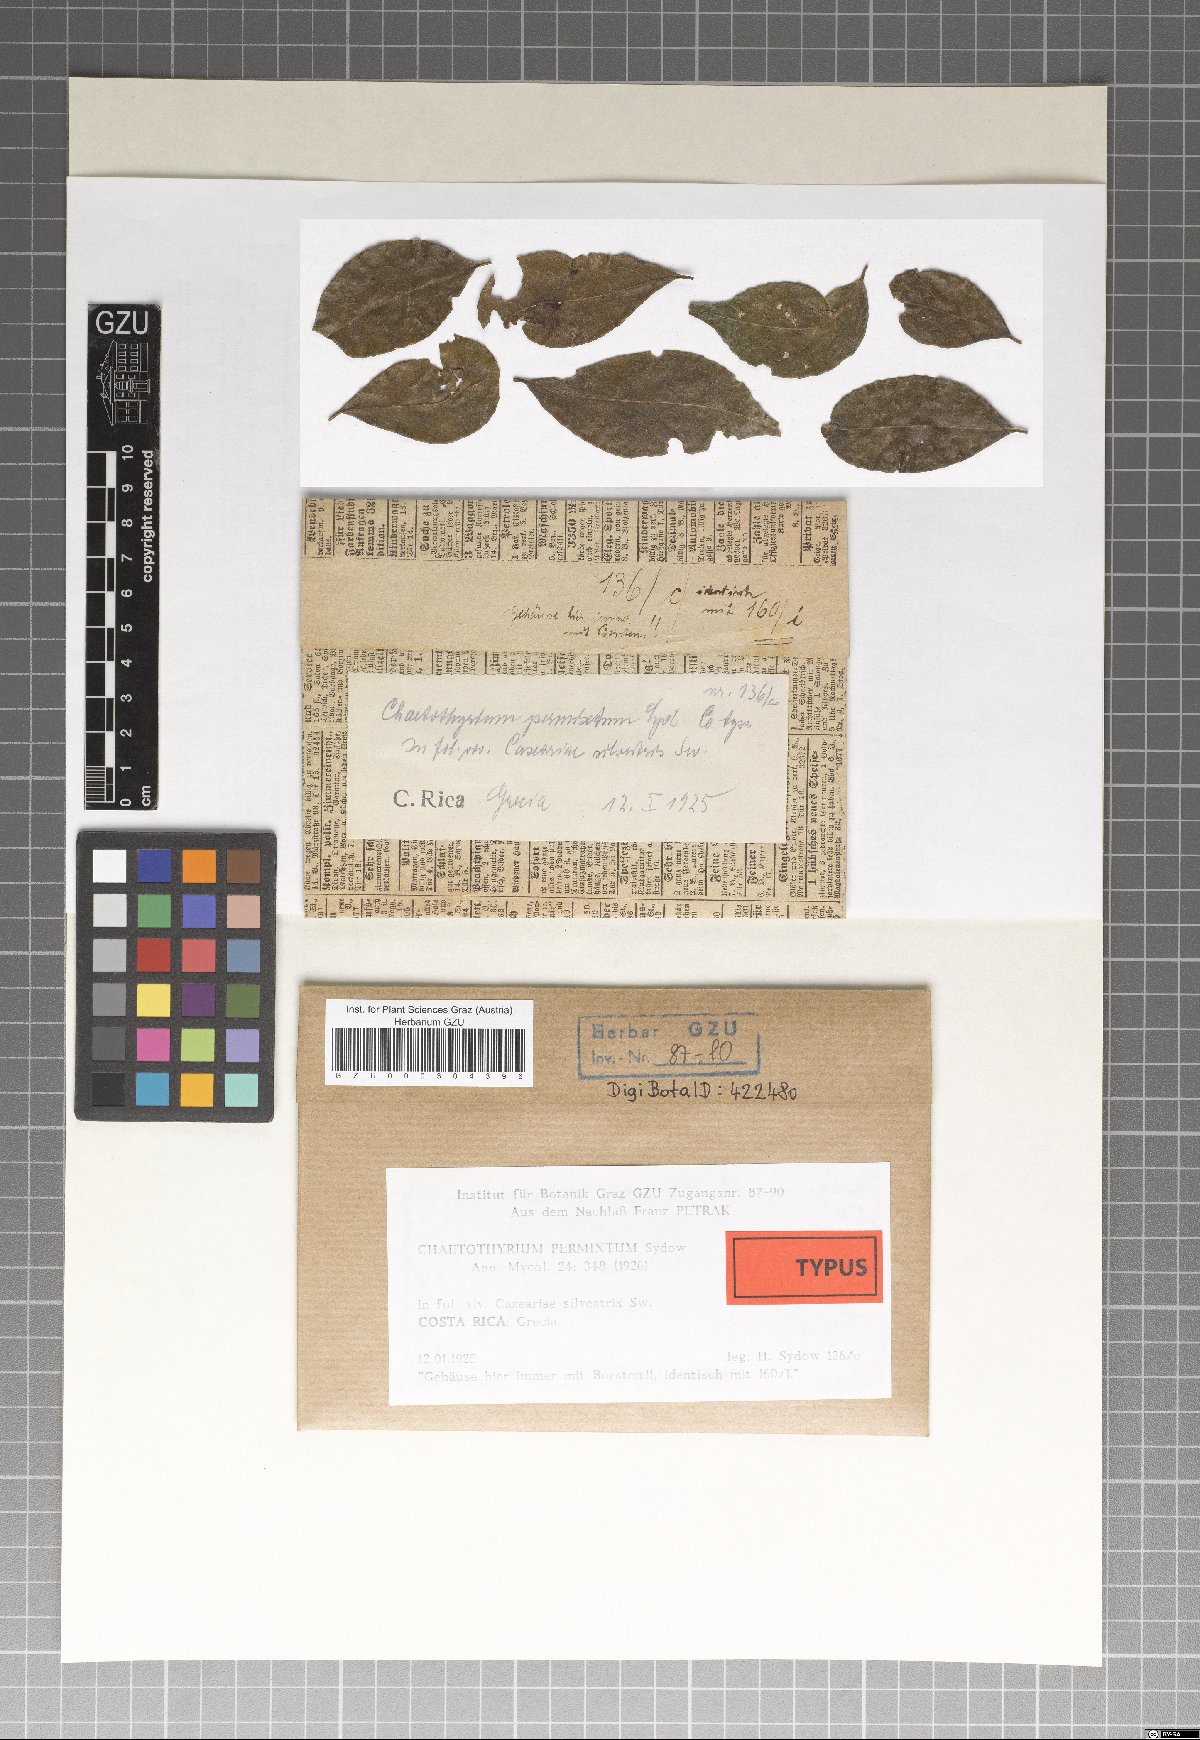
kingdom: Fungi
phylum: Ascomycota
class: Eurotiomycetes
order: Chaetothyriales
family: Chaetothyriaceae
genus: Chaetothyrium
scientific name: Chaetothyrium permixtum
